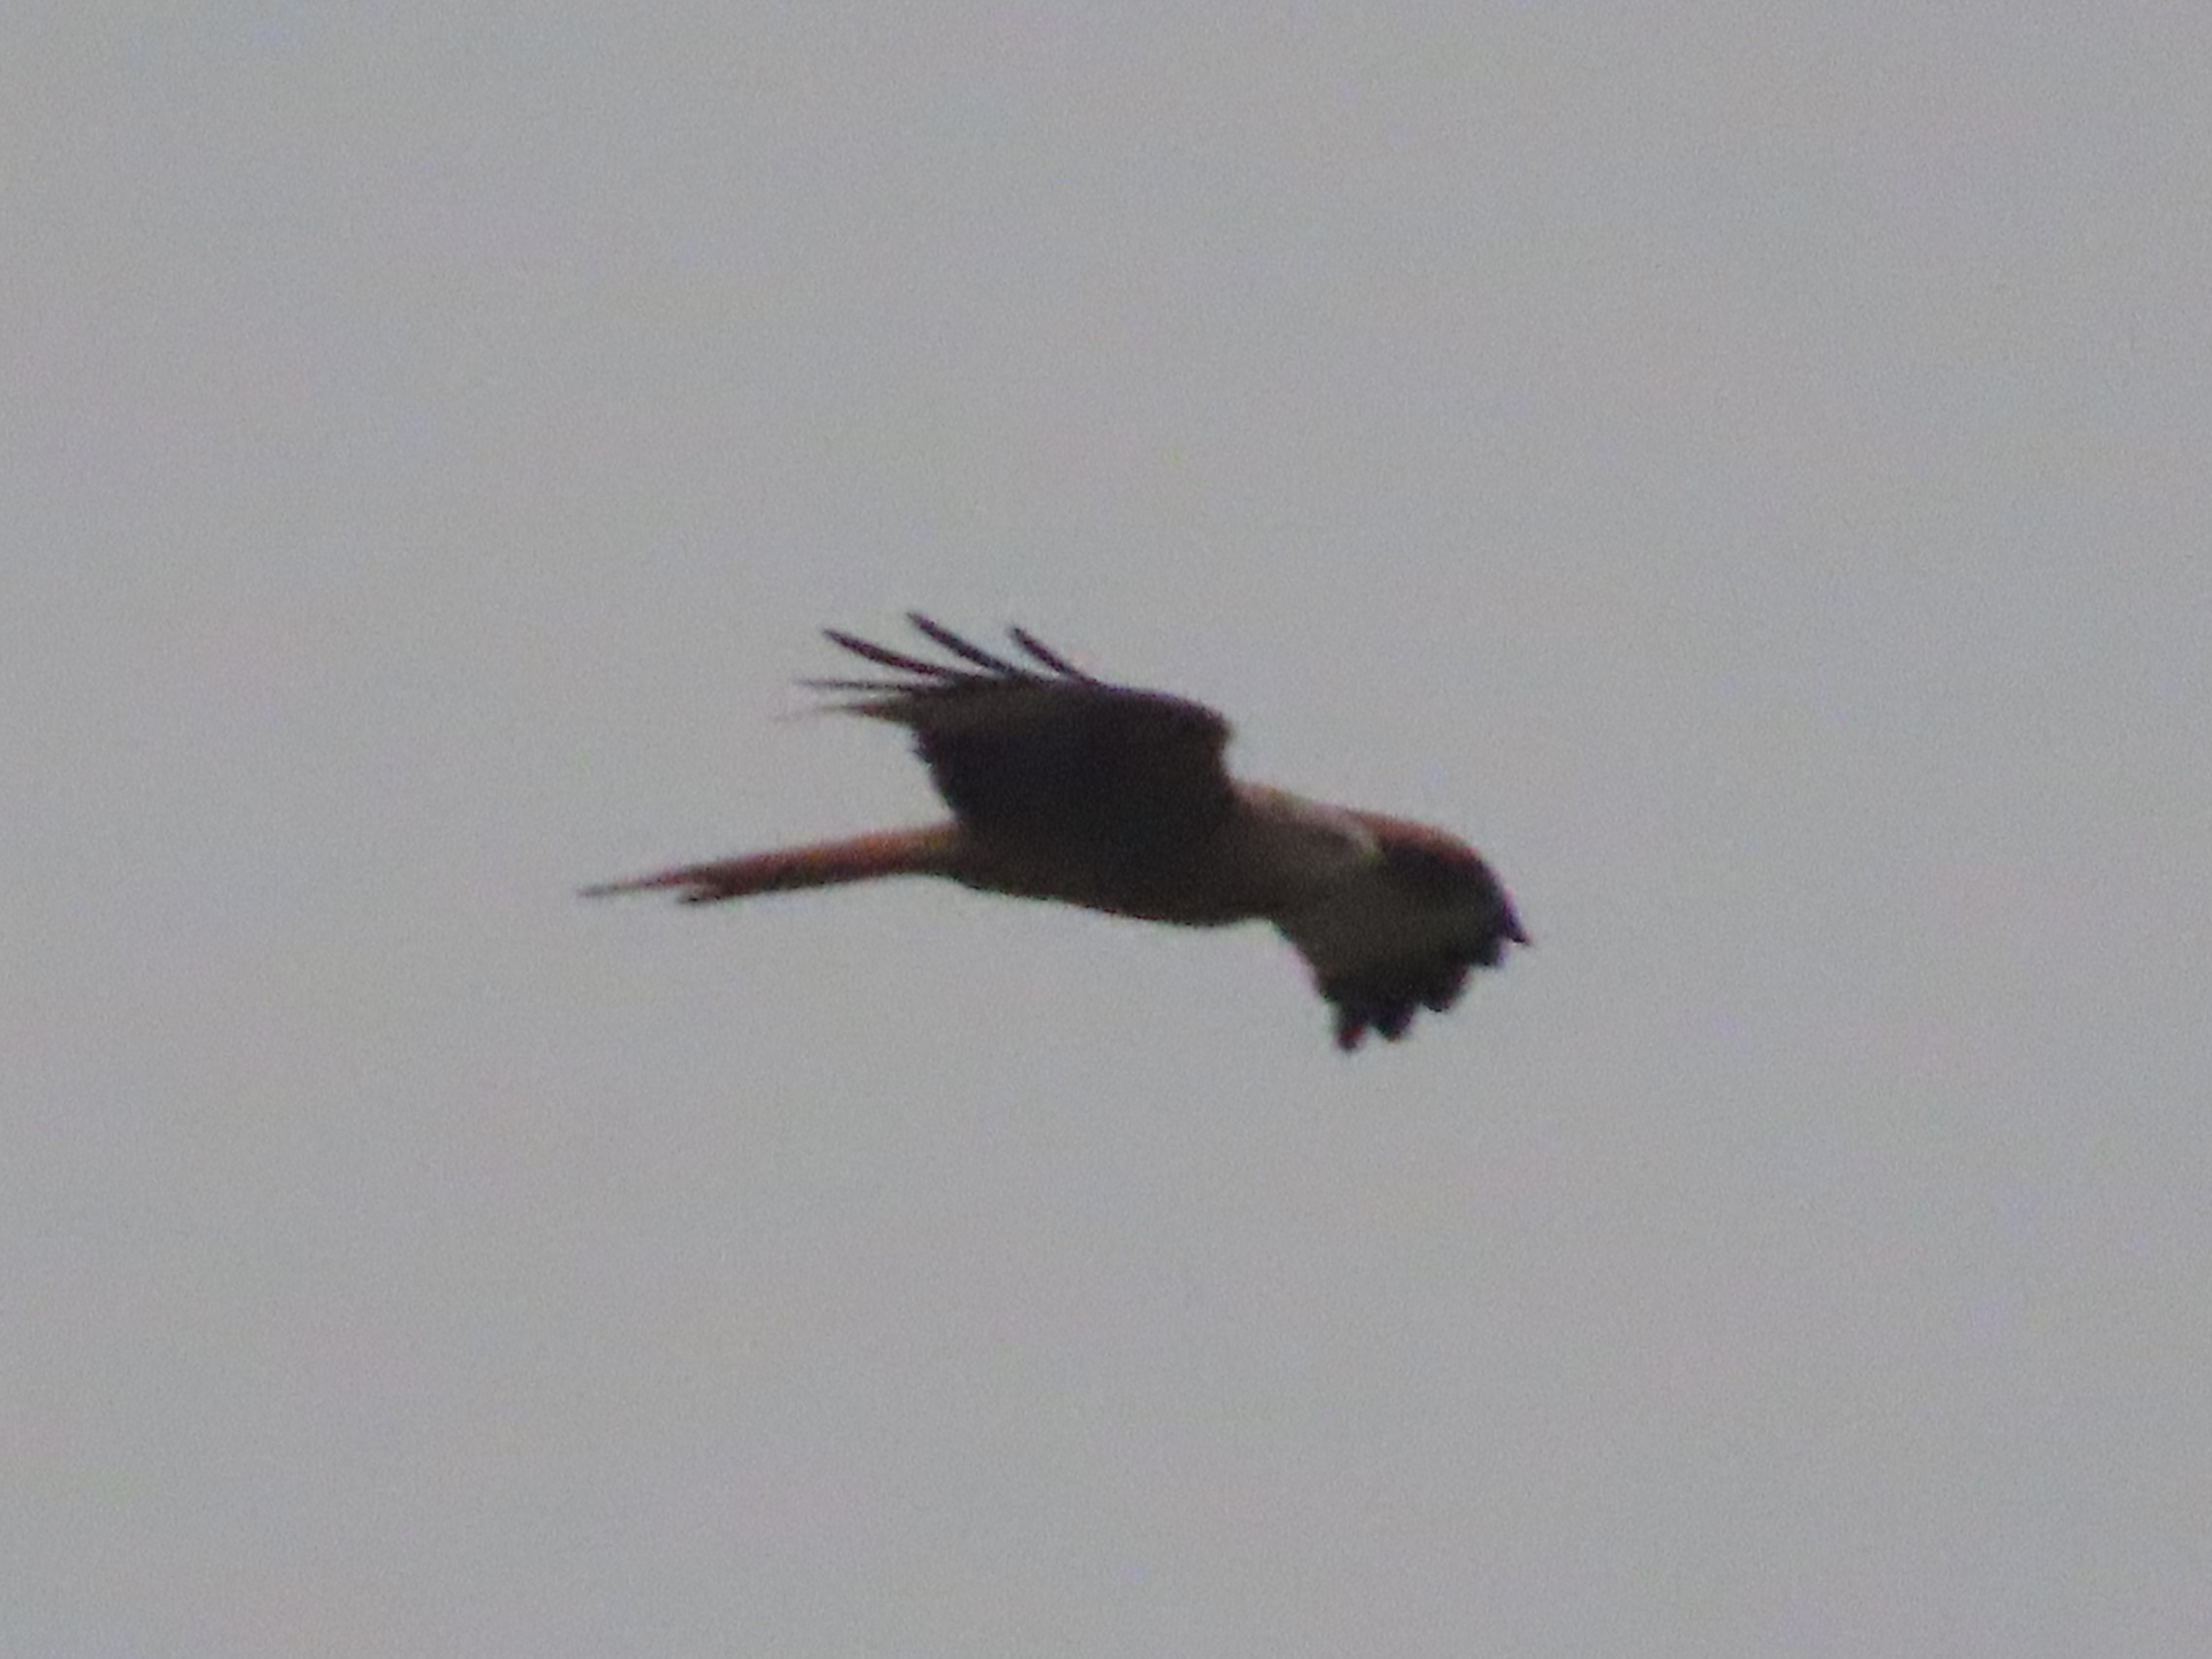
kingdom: Animalia
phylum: Chordata
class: Aves
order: Accipitriformes
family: Accipitridae
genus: Milvus
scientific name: Milvus milvus
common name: Rød glente
